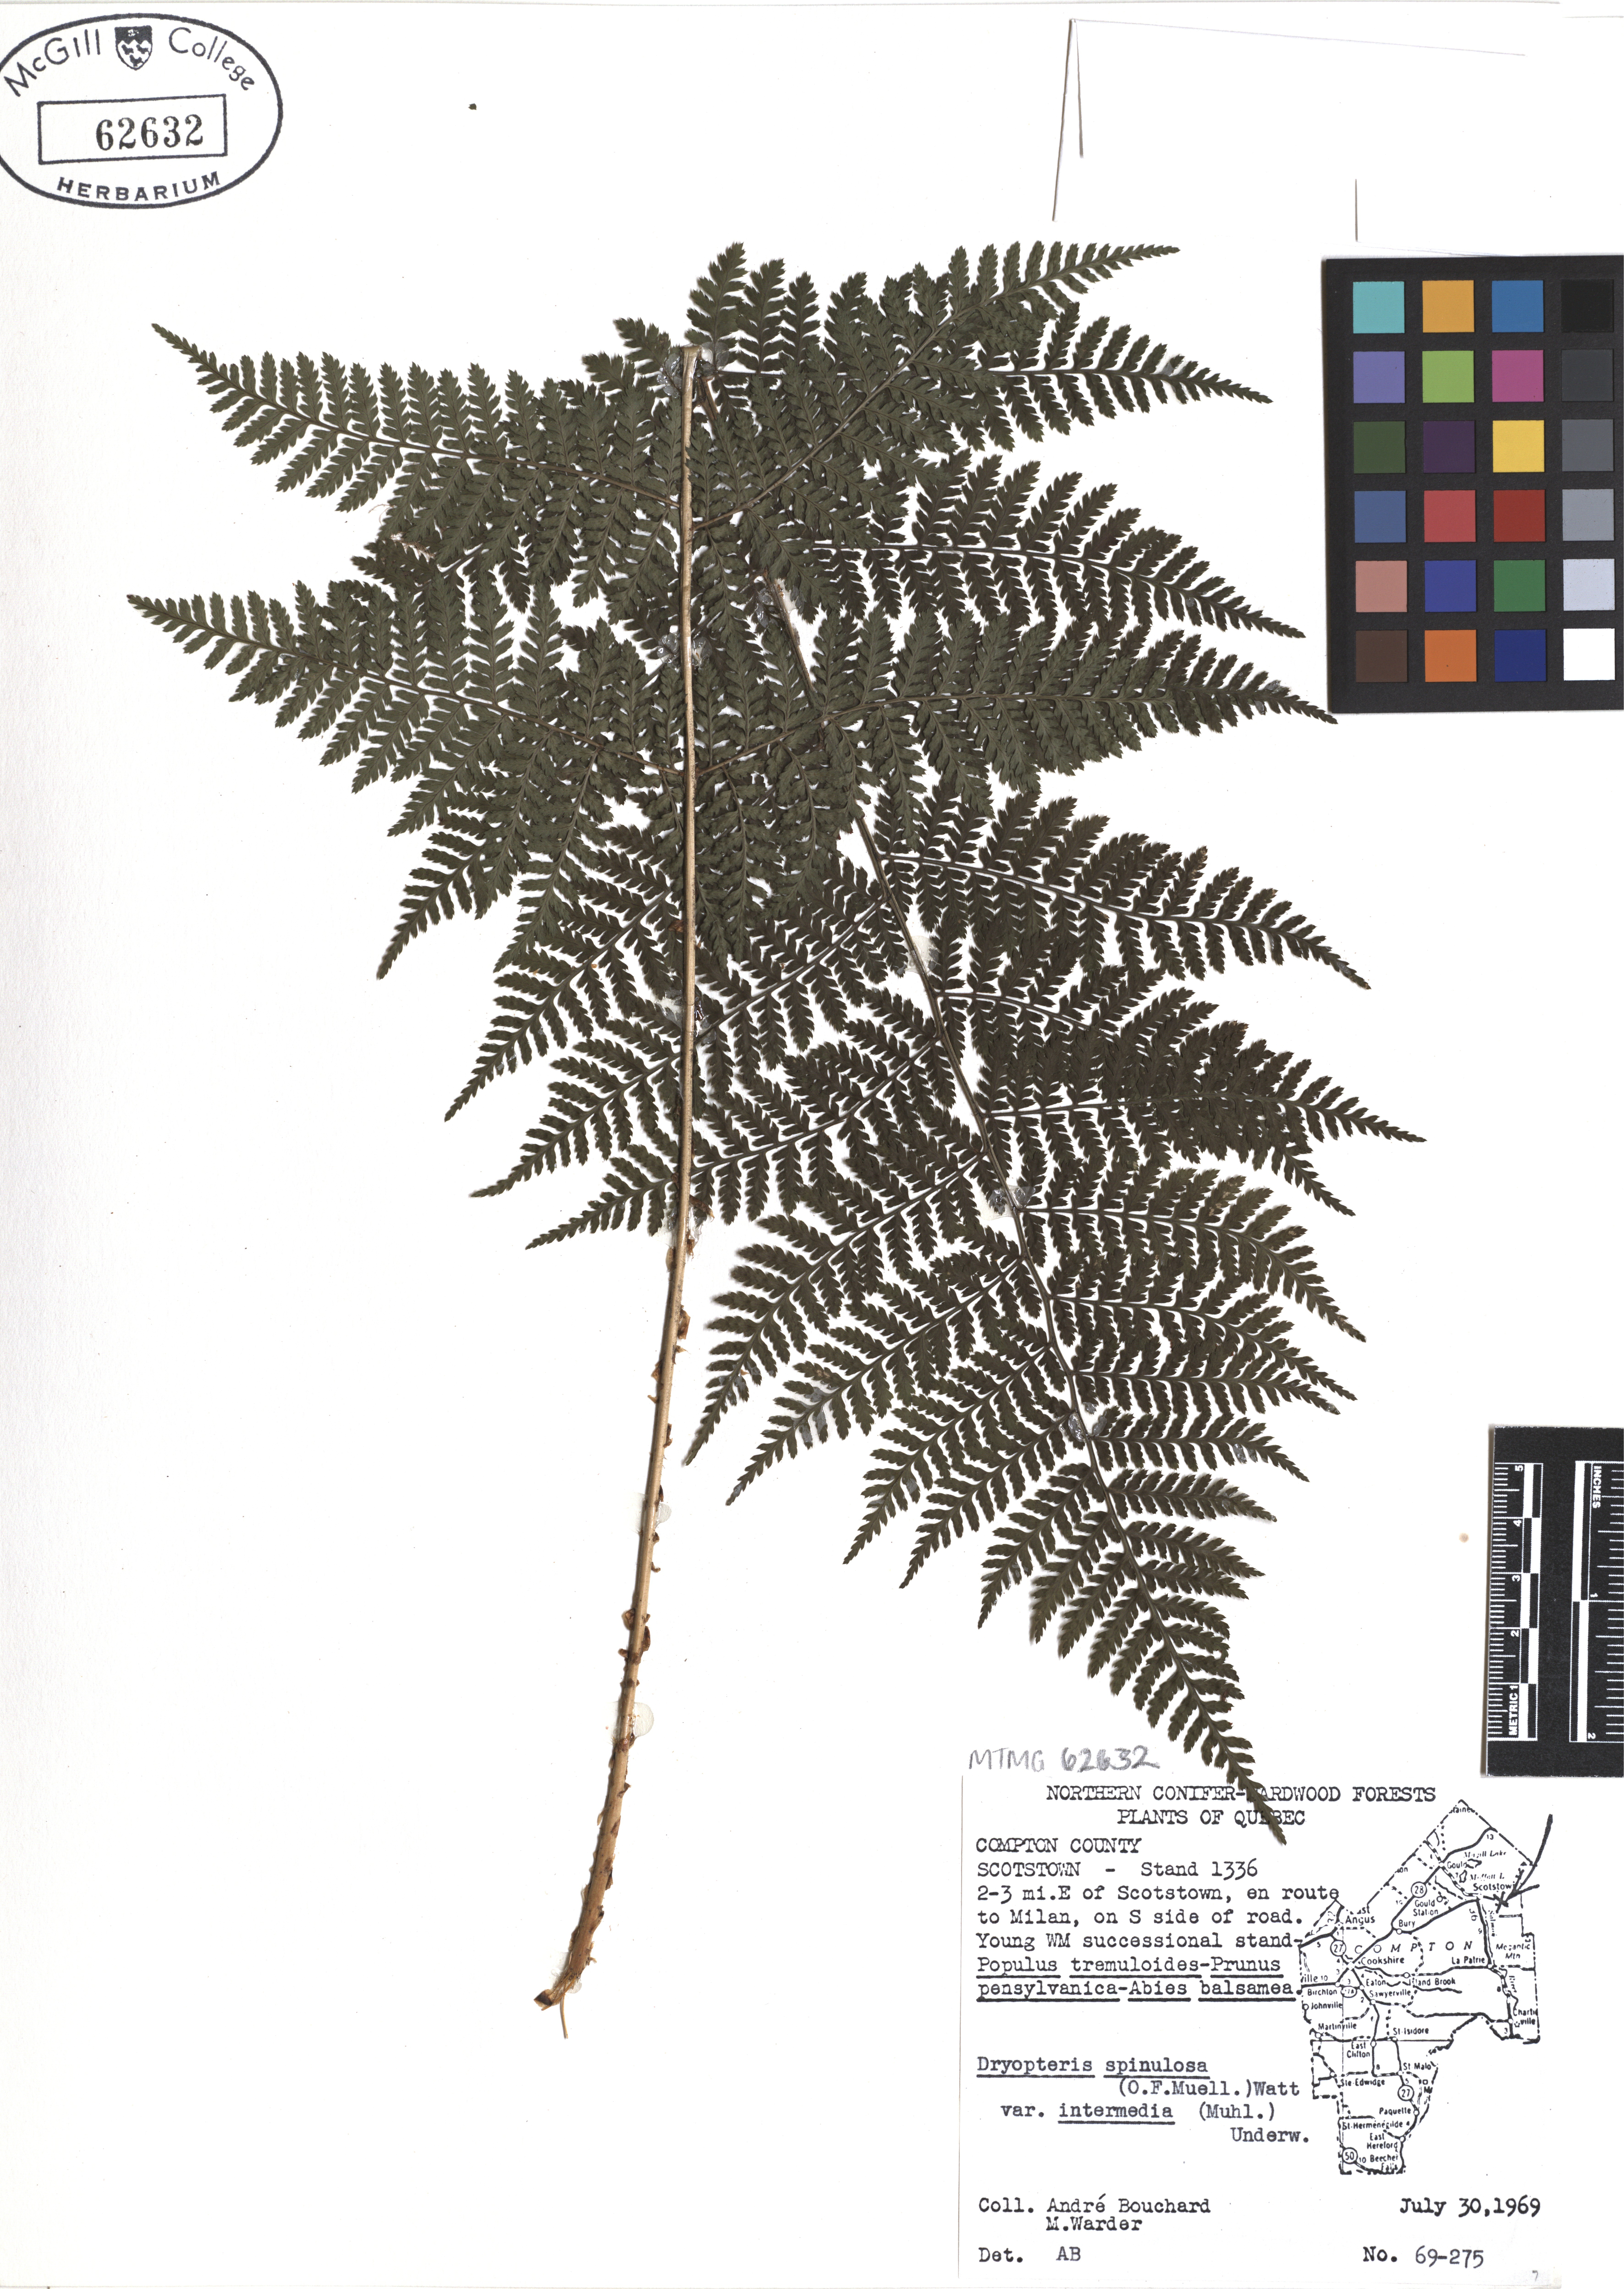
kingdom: Plantae
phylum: Tracheophyta
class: Polypodiopsida
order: Polypodiales
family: Dryopteridaceae
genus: Dryopteris
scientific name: Dryopteris intermedia
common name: Evergreen wood fern
